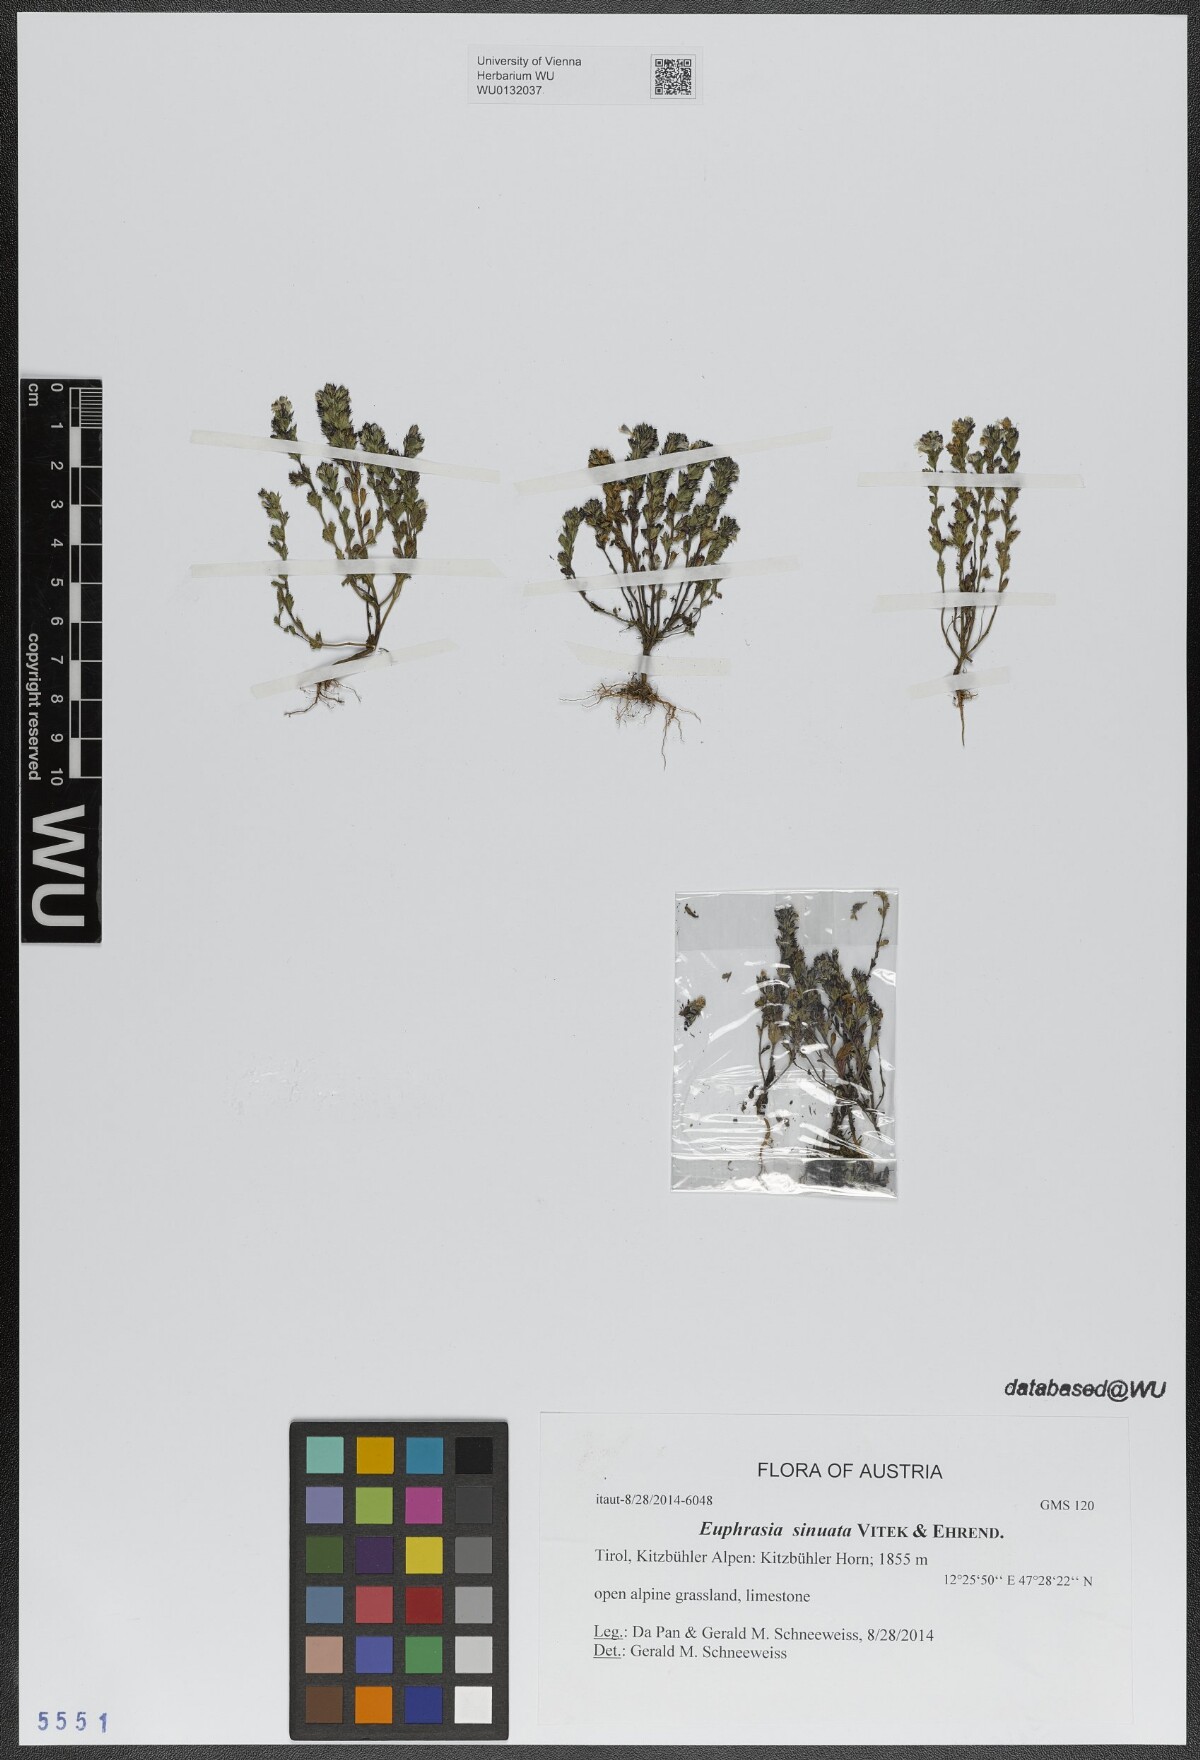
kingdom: Plantae
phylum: Tracheophyta
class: Magnoliopsida
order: Lamiales
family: Orobanchaceae
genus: Euphrasia
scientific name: Euphrasia sinuata
